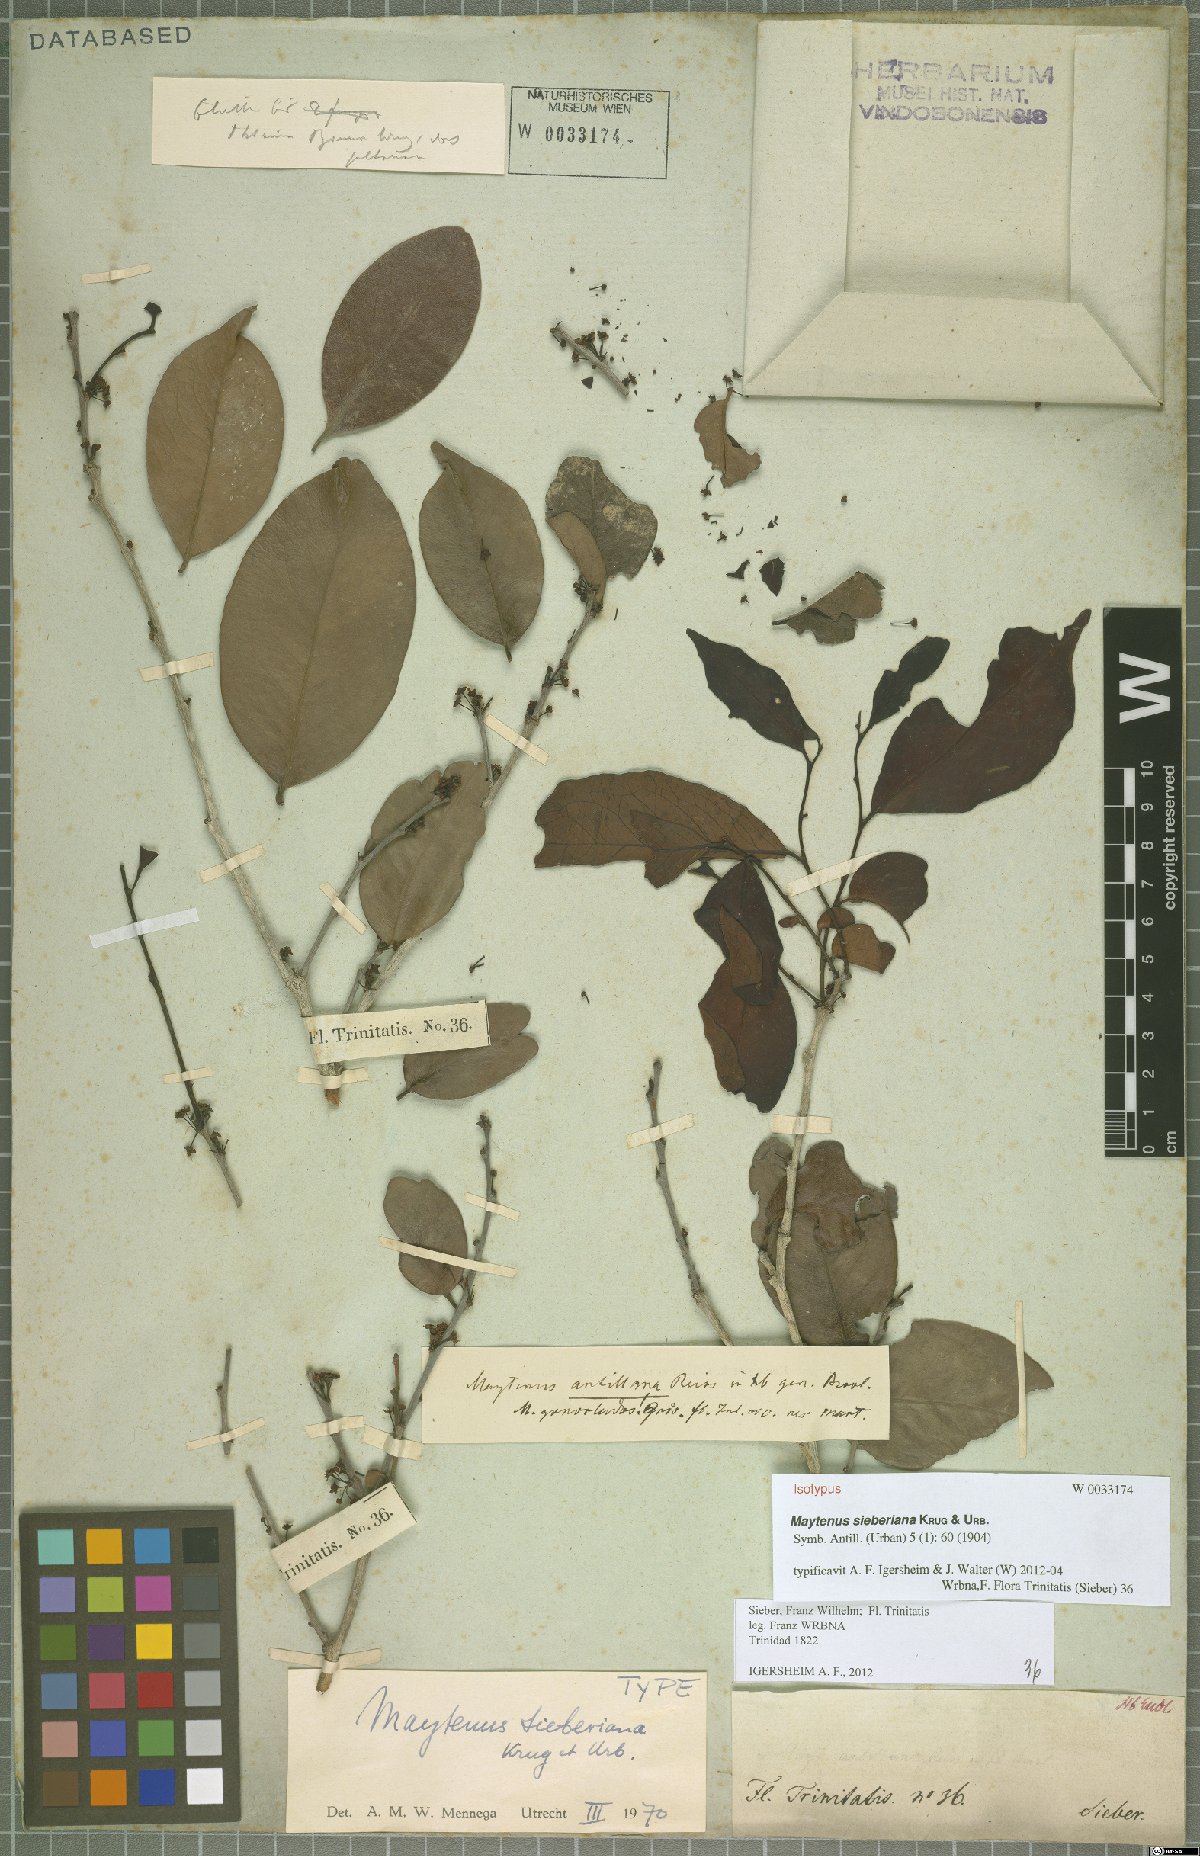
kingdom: Plantae
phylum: Tracheophyta
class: Magnoliopsida
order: Celastrales
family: Celastraceae
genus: Monteverdia
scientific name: Monteverdia sieberiana
